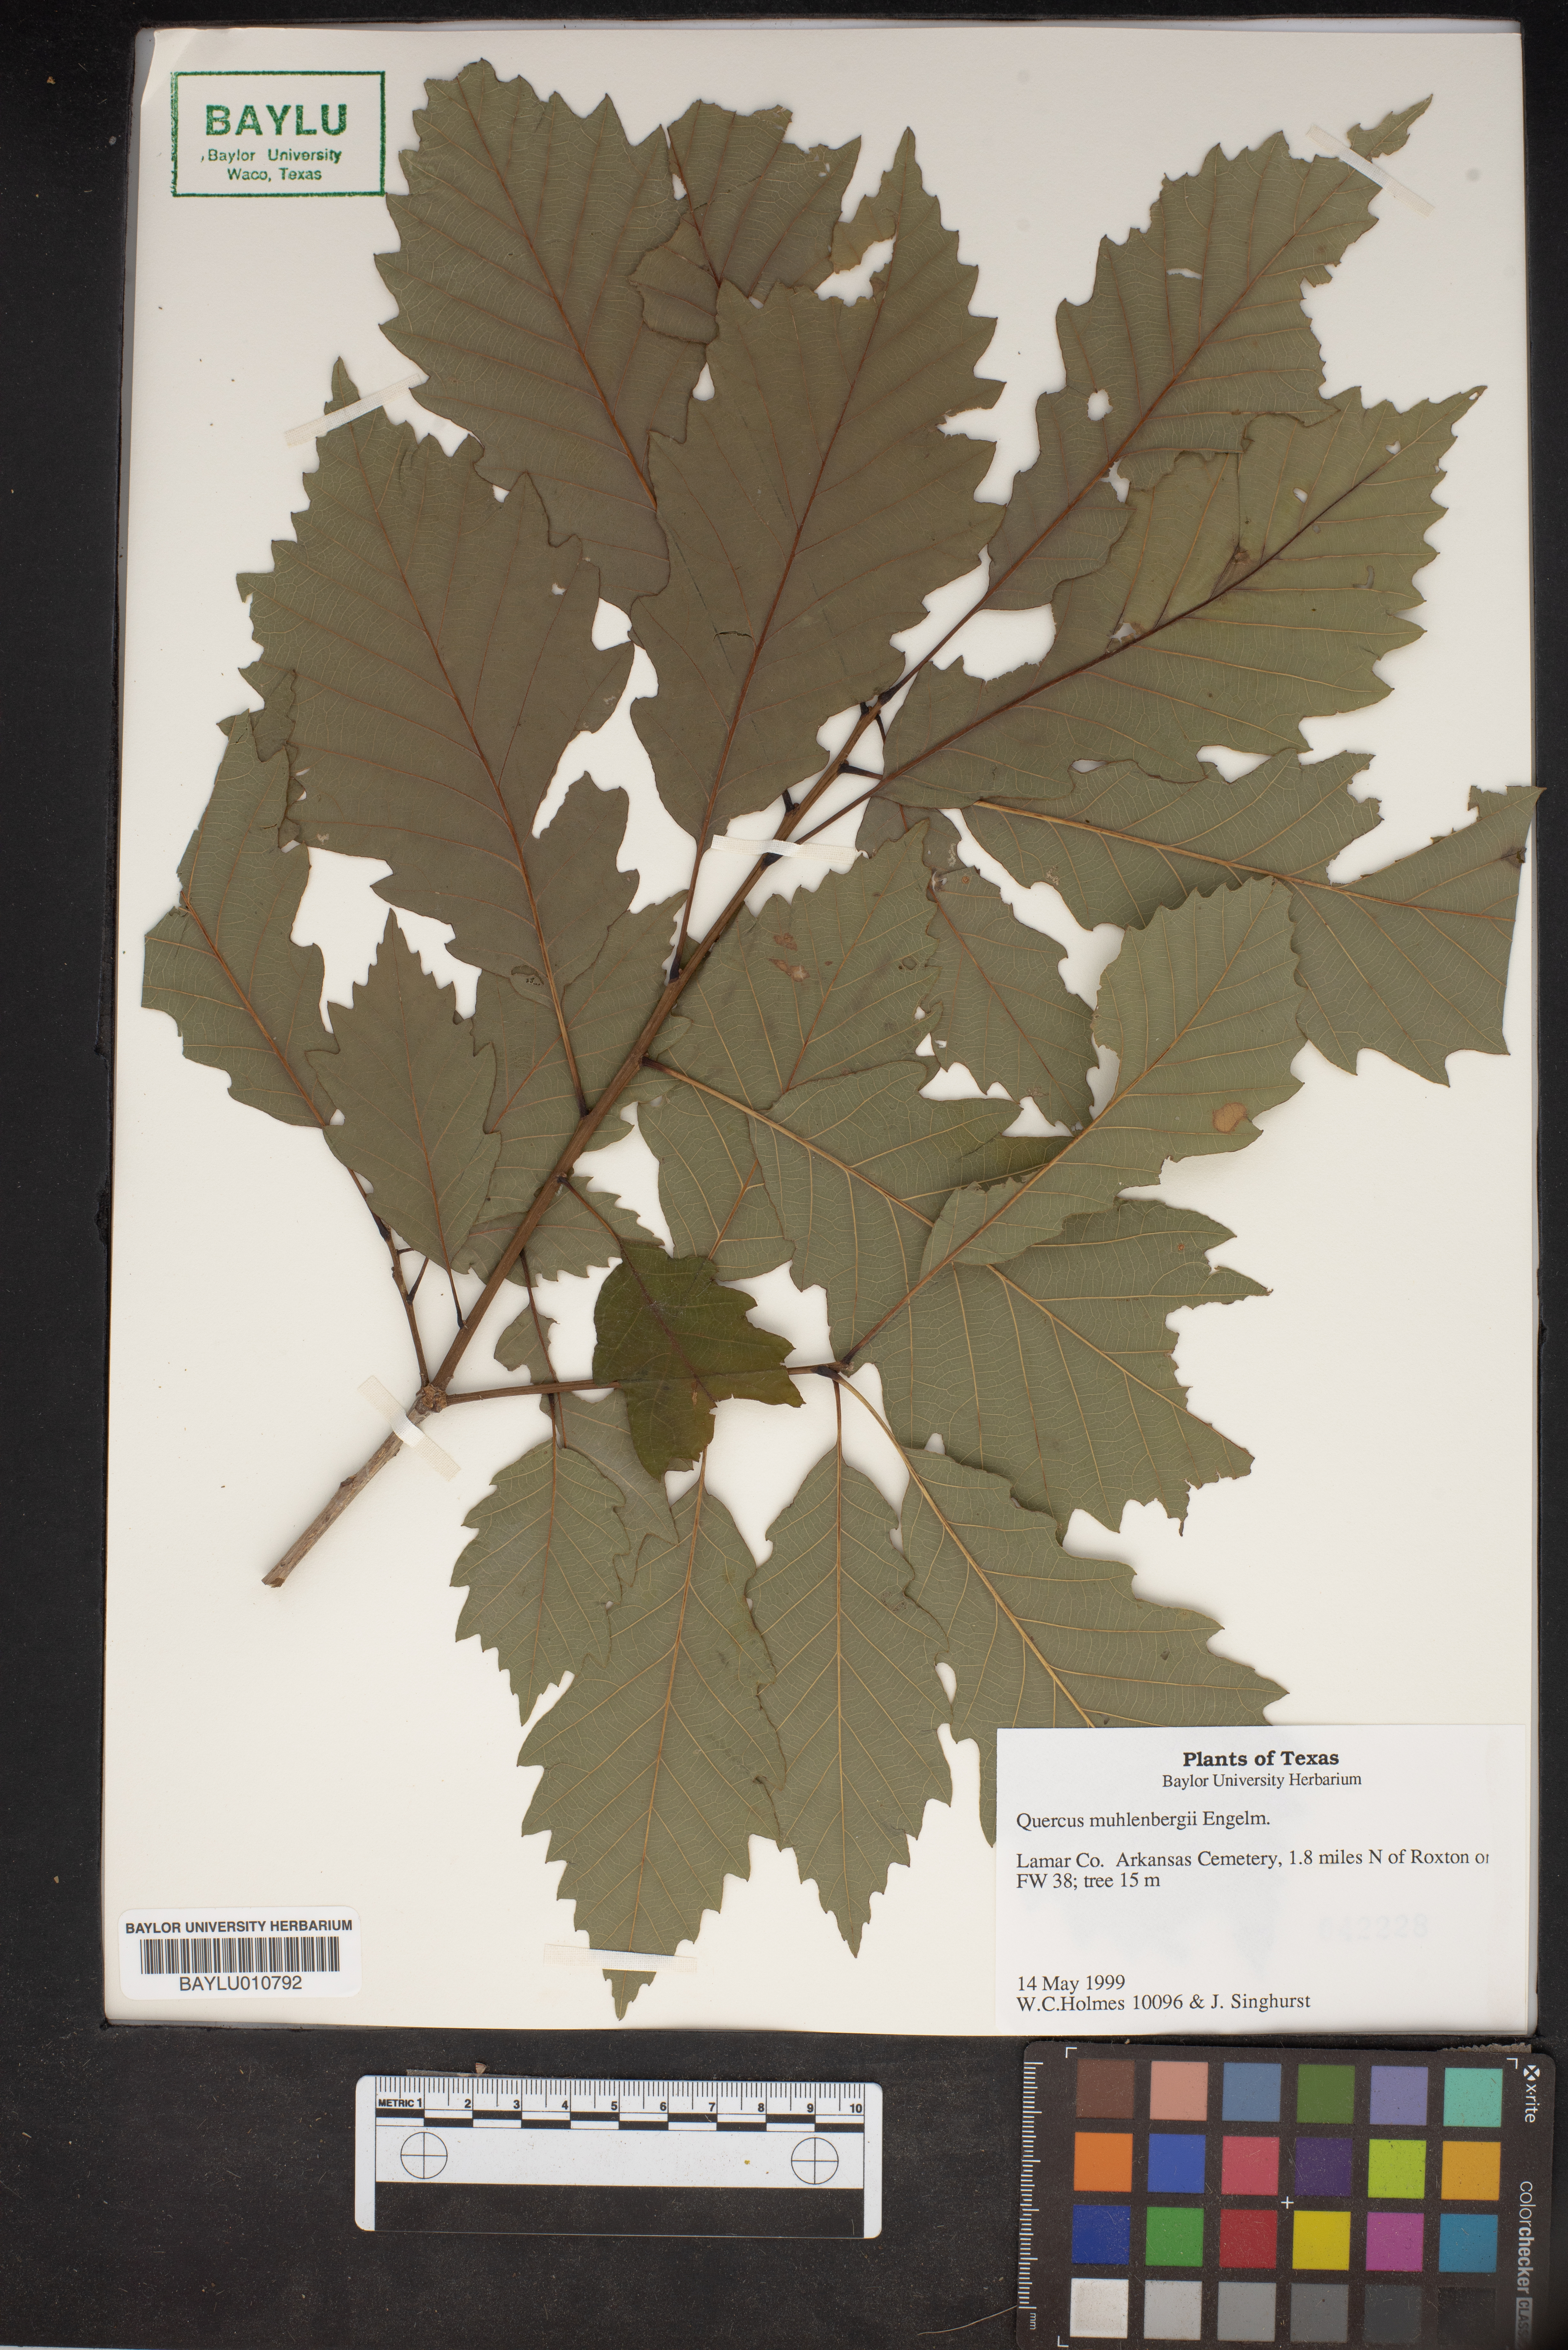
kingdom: Plantae
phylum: Tracheophyta
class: Magnoliopsida
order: Fagales
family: Fagaceae
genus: Quercus
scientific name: Quercus muehlenbergii
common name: Chinkapin oak
